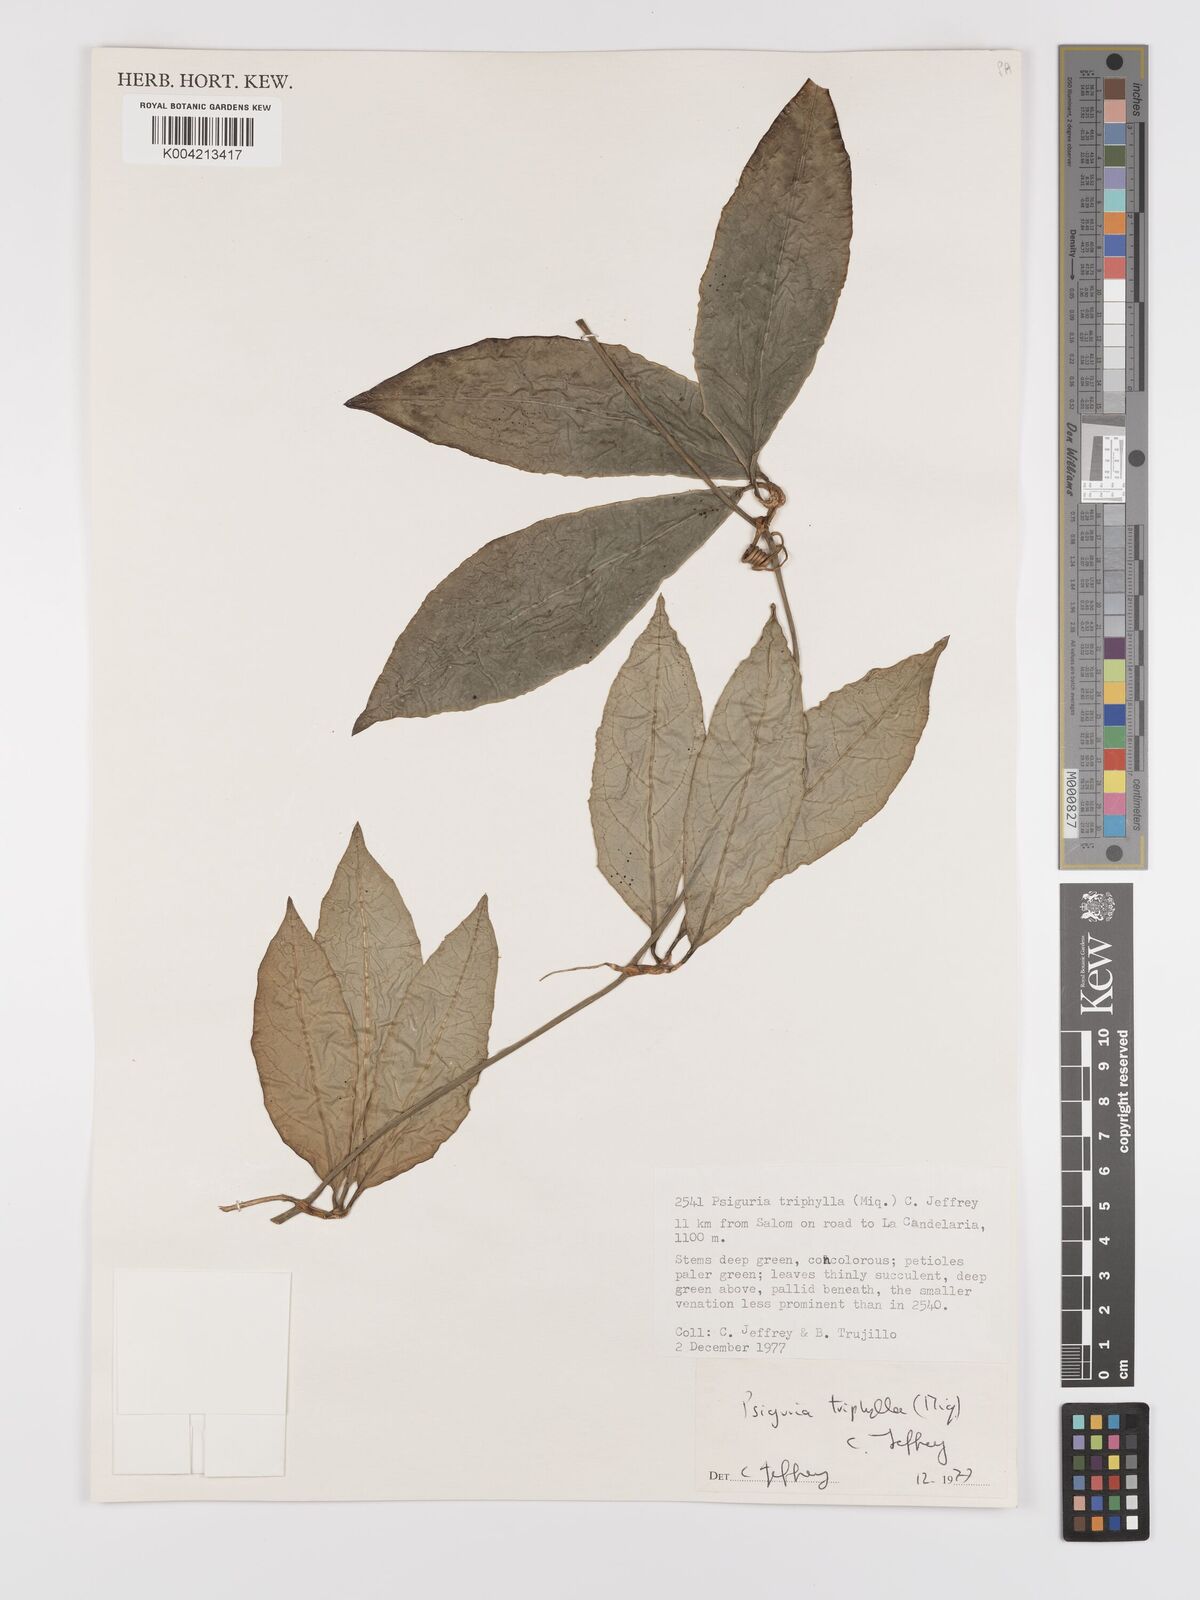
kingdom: Plantae
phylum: Tracheophyta
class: Magnoliopsida
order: Cucurbitales
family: Cucurbitaceae
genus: Psiguria
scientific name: Psiguria triphylla
